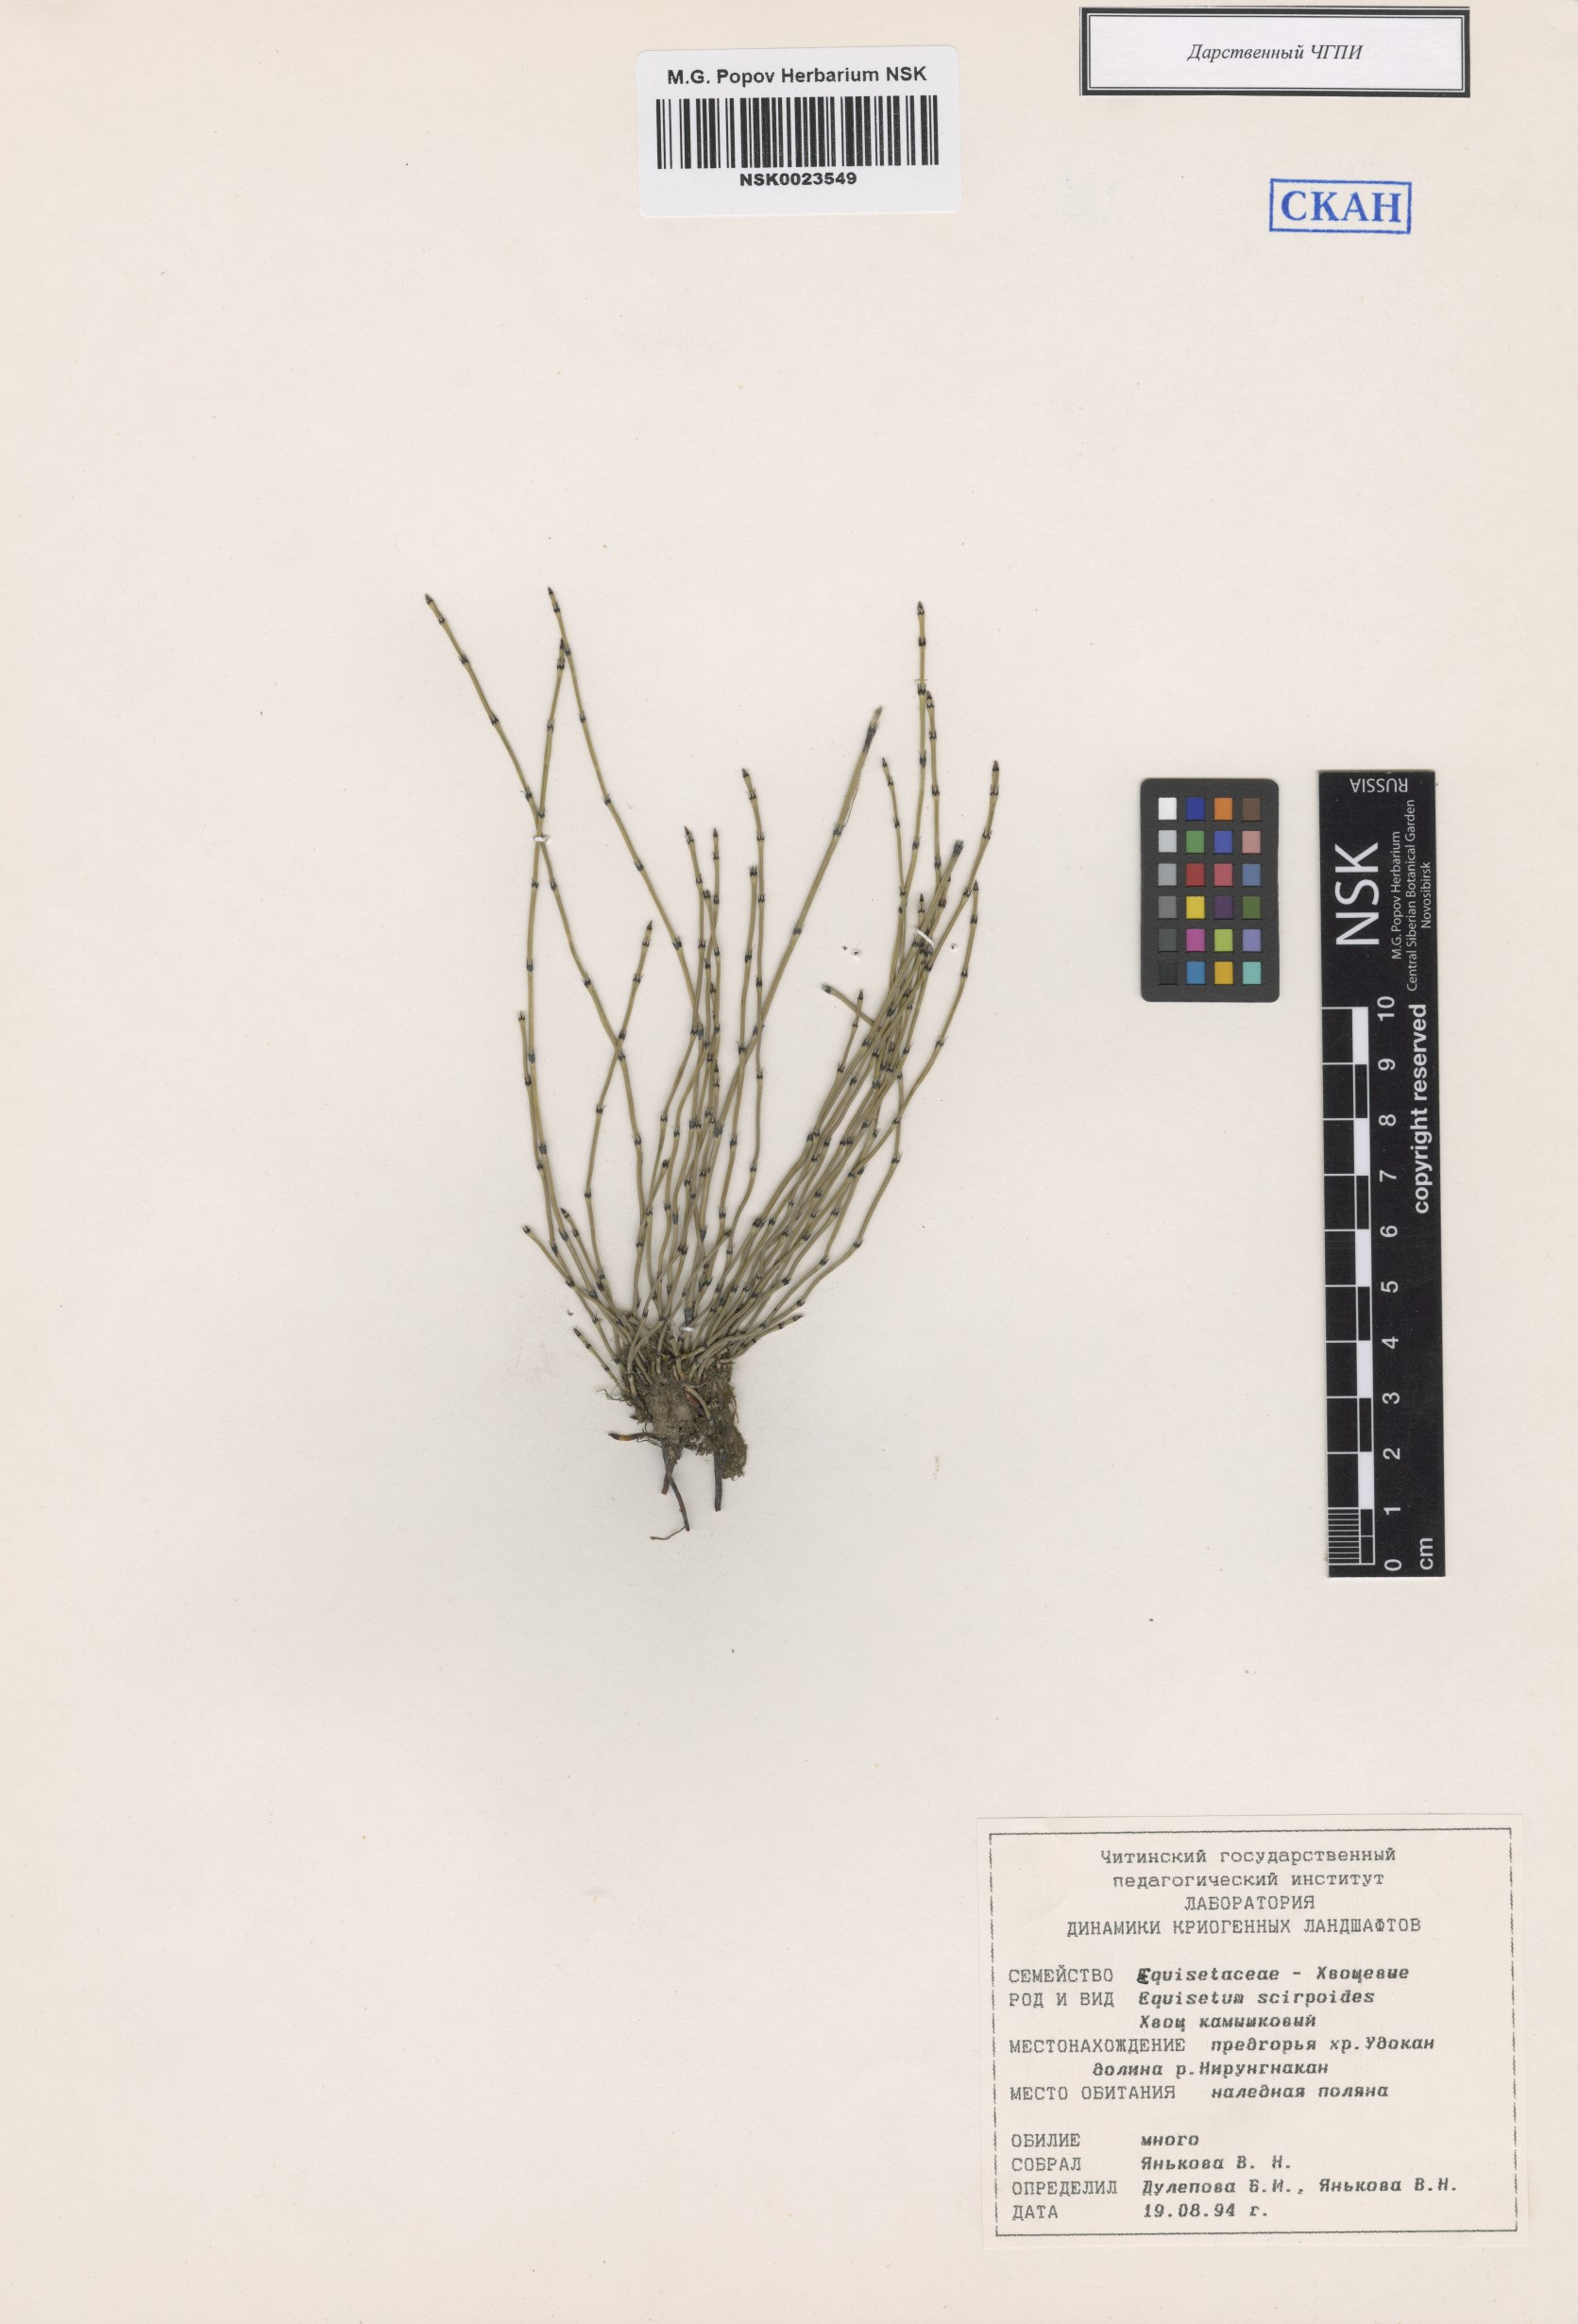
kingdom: Plantae
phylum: Tracheophyta
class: Polypodiopsida
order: Equisetales
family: Equisetaceae
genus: Equisetum
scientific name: Equisetum scirpoides
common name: Delicate horsetail
